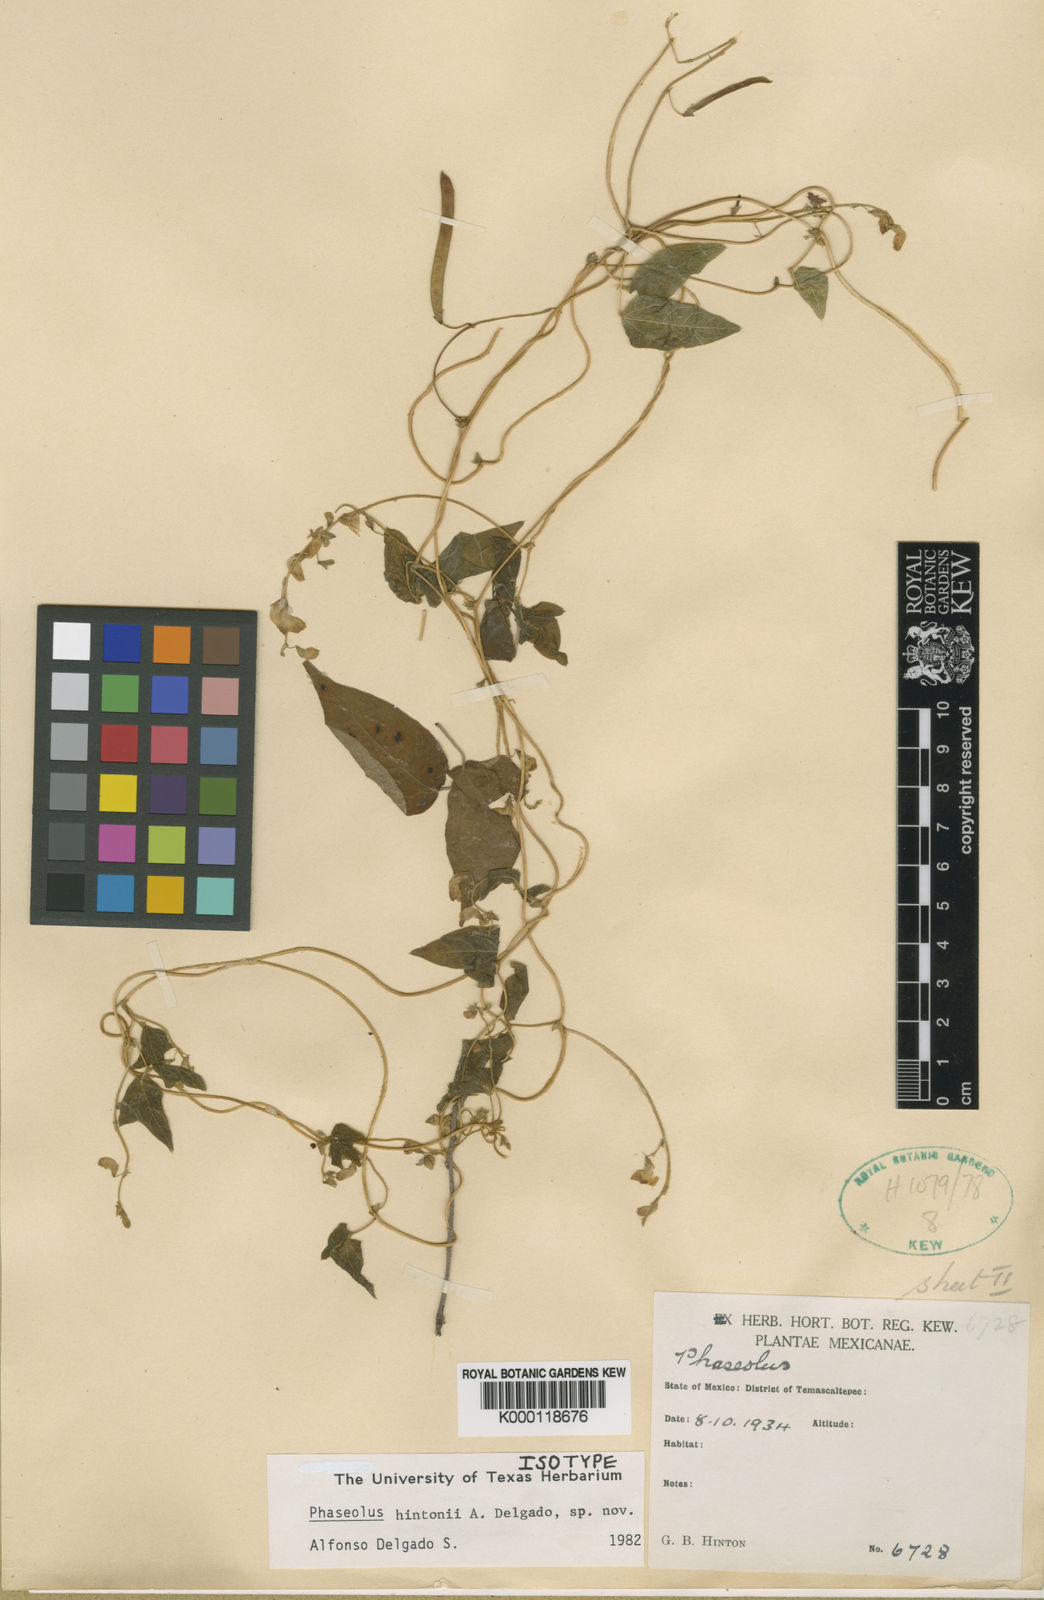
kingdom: Plantae
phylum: Tracheophyta
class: Magnoliopsida
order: Fabales
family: Fabaceae
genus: Phaseolus
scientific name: Phaseolus hintonii
